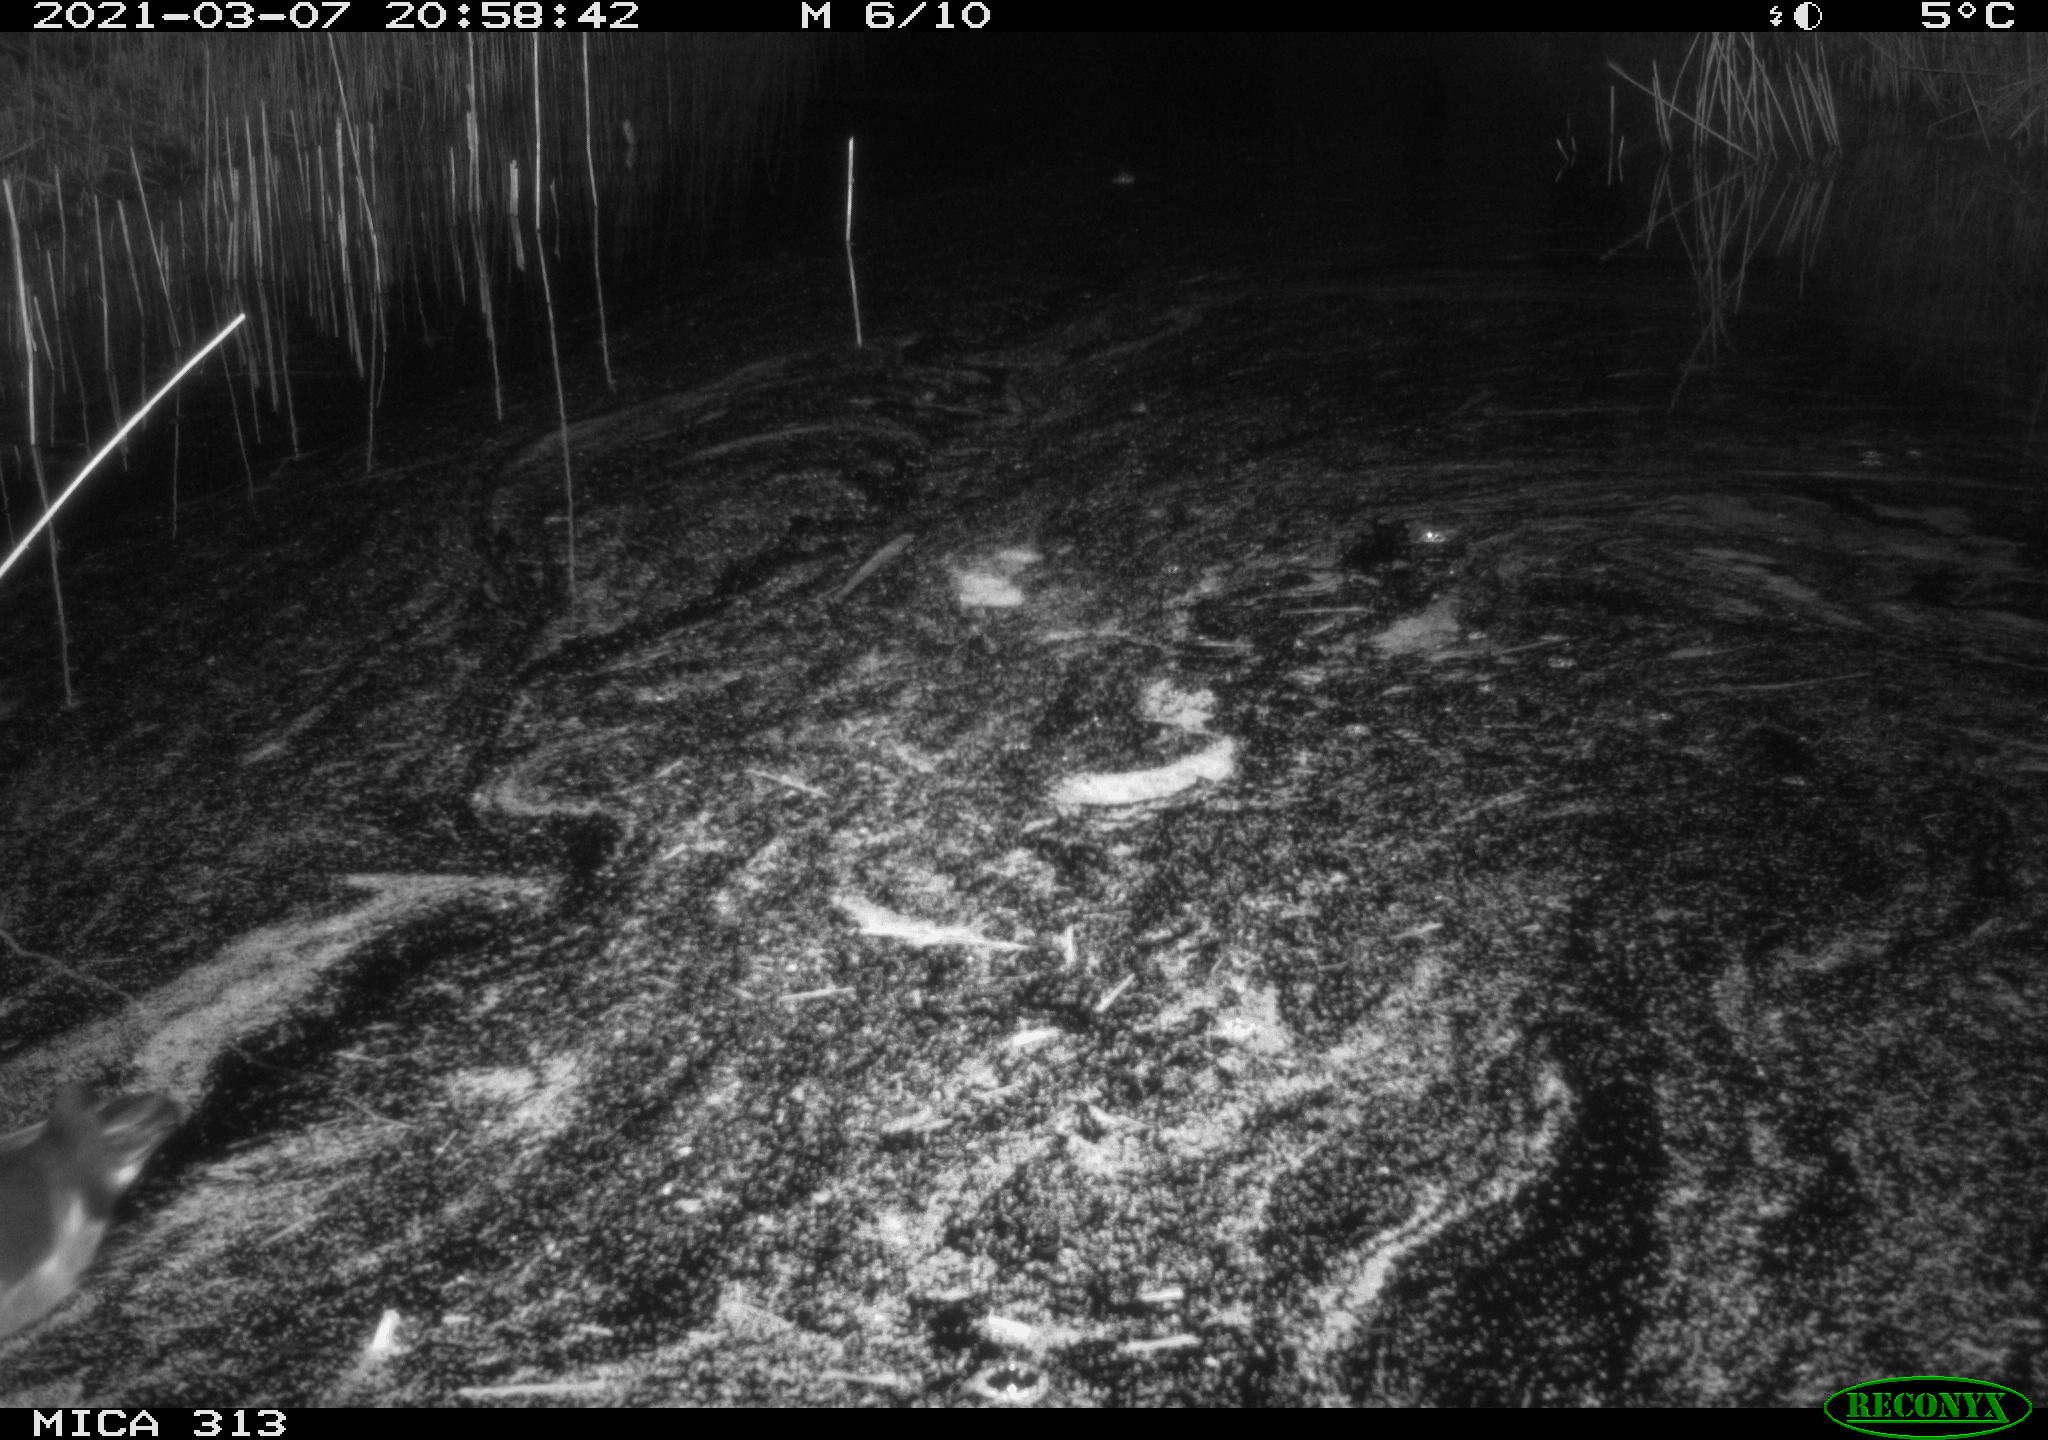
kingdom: Animalia
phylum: Chordata
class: Aves
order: Gruiformes
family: Rallidae
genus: Gallinula
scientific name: Gallinula chloropus
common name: Common moorhen
